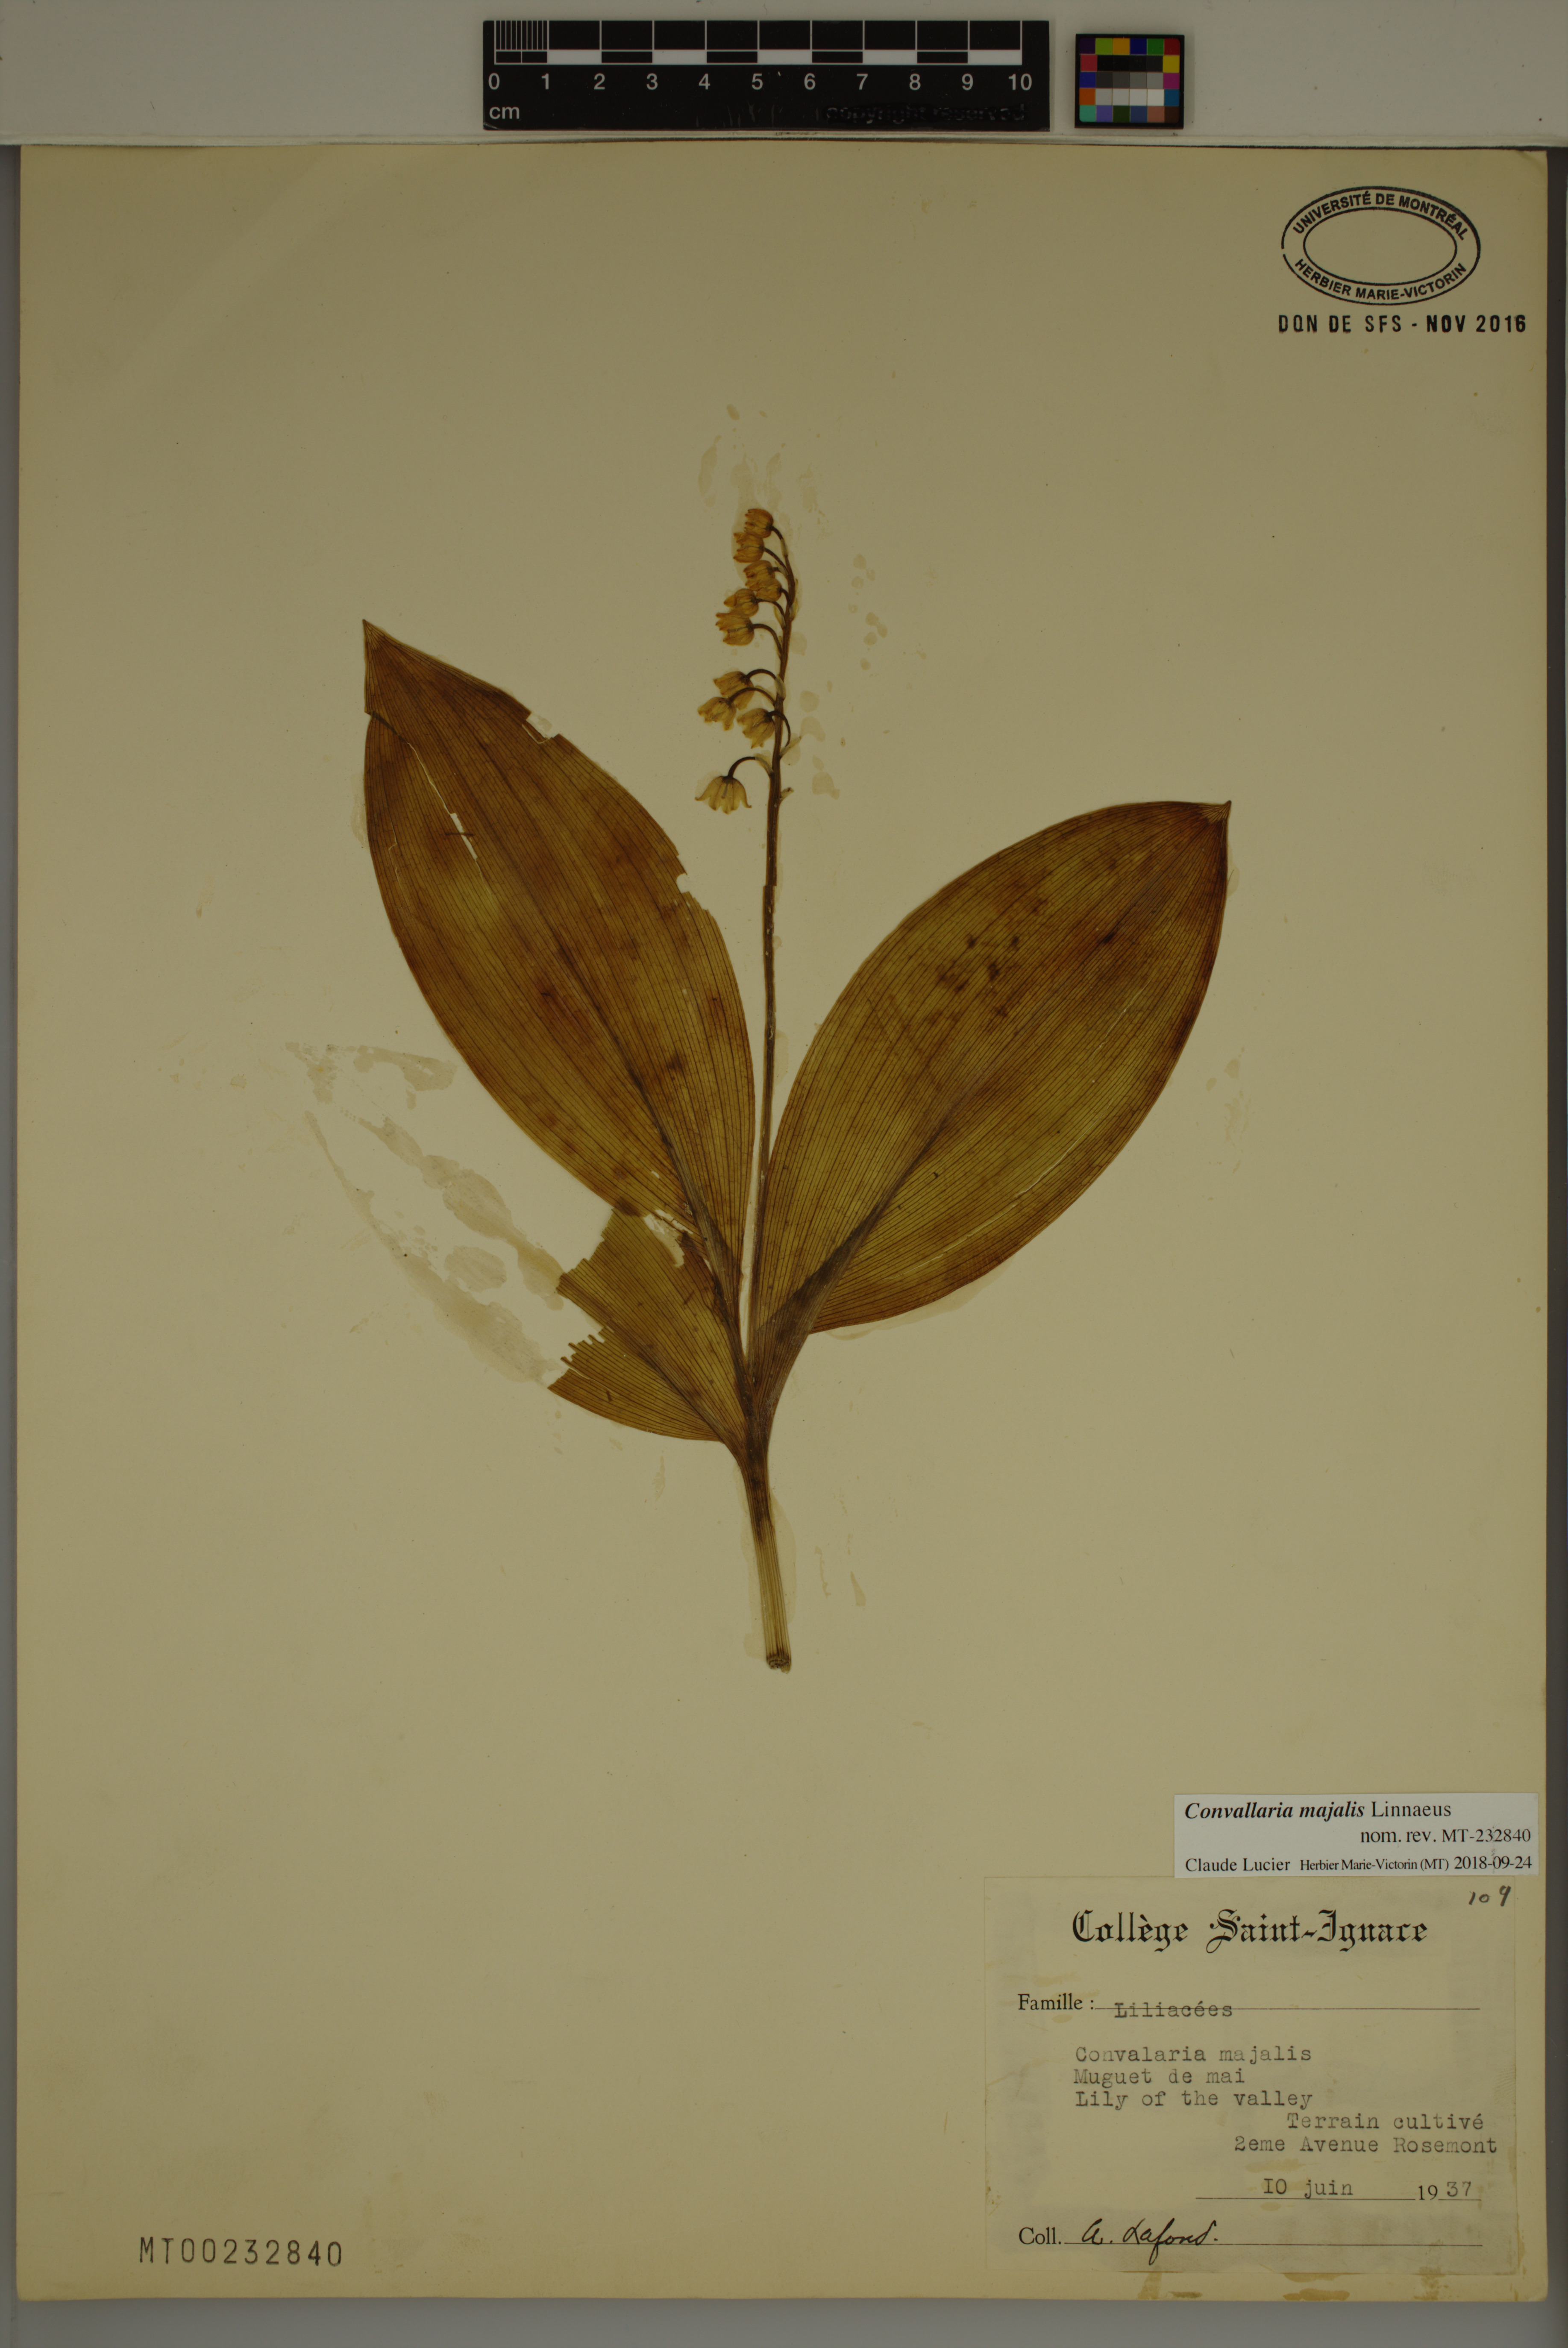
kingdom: Plantae
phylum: Tracheophyta
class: Liliopsida
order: Asparagales
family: Asparagaceae
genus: Convallaria
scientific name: Convallaria majalis
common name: Lily-of-the-valley
